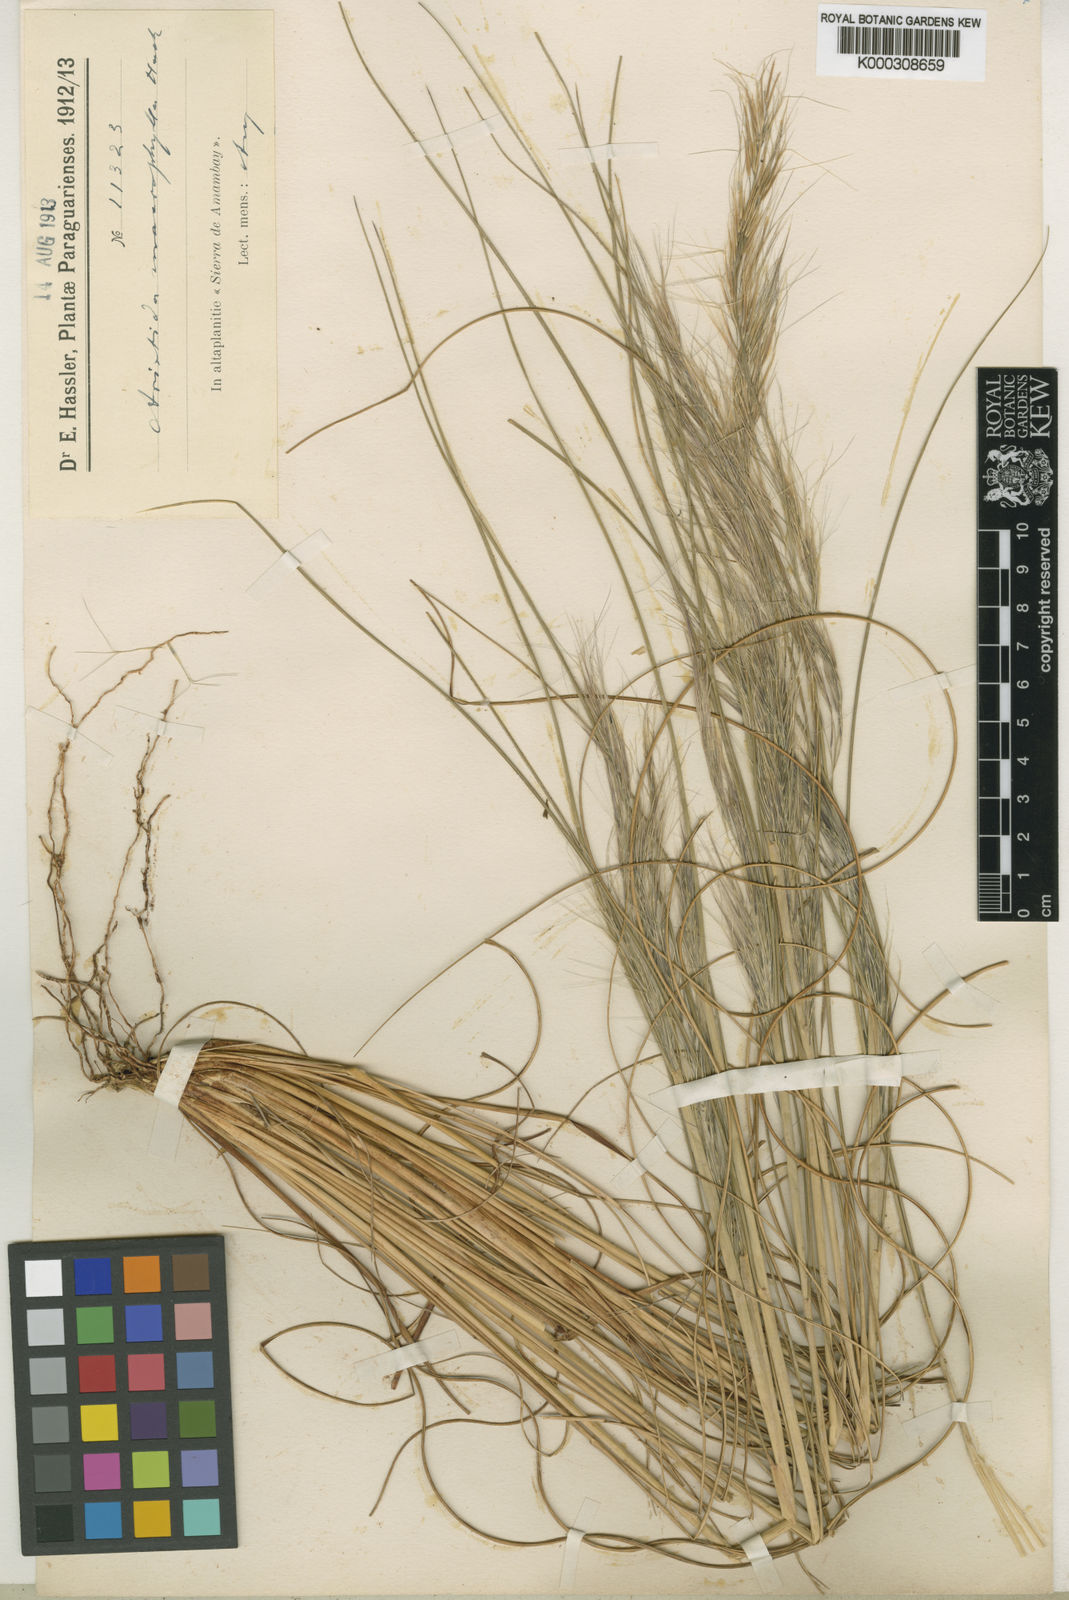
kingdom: Plantae
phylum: Tracheophyta
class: Liliopsida
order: Poales
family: Poaceae
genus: Aristida
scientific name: Aristida macrophylla
